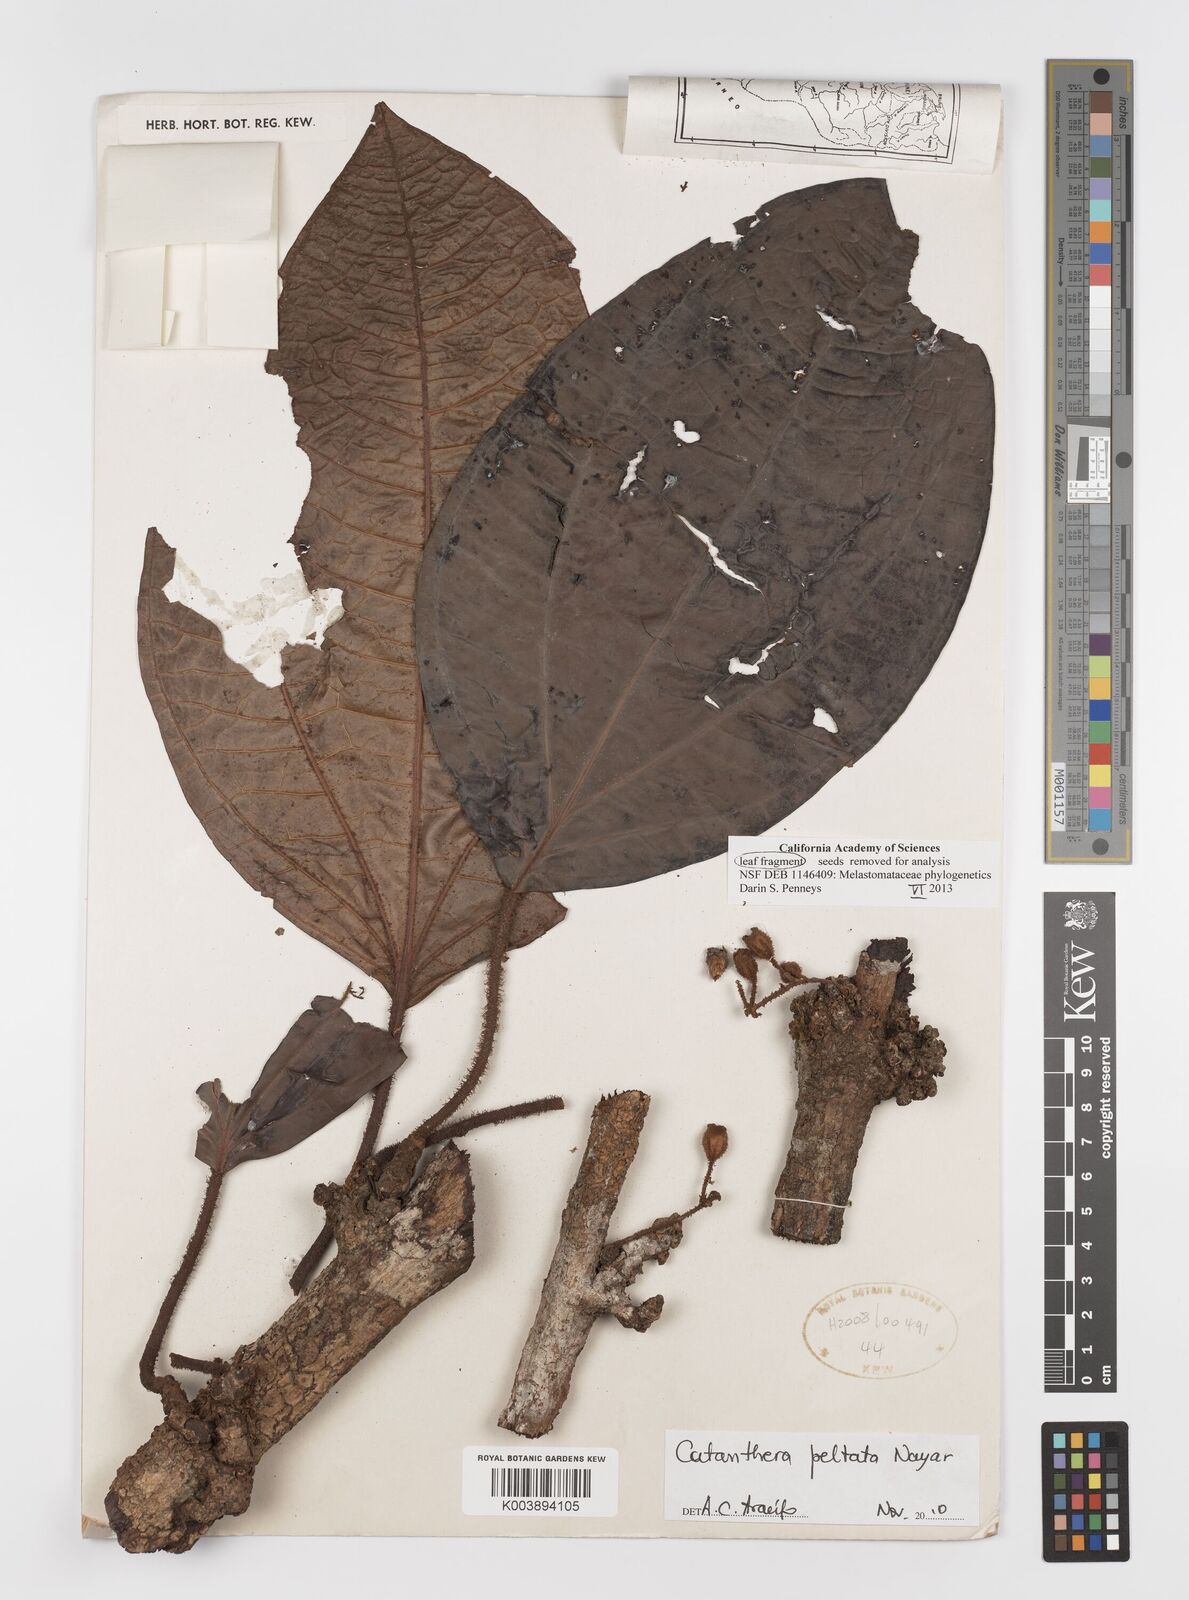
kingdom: Plantae
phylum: Tracheophyta
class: Magnoliopsida
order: Myrtales
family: Melastomataceae
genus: Catanthera
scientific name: Catanthera peltata
